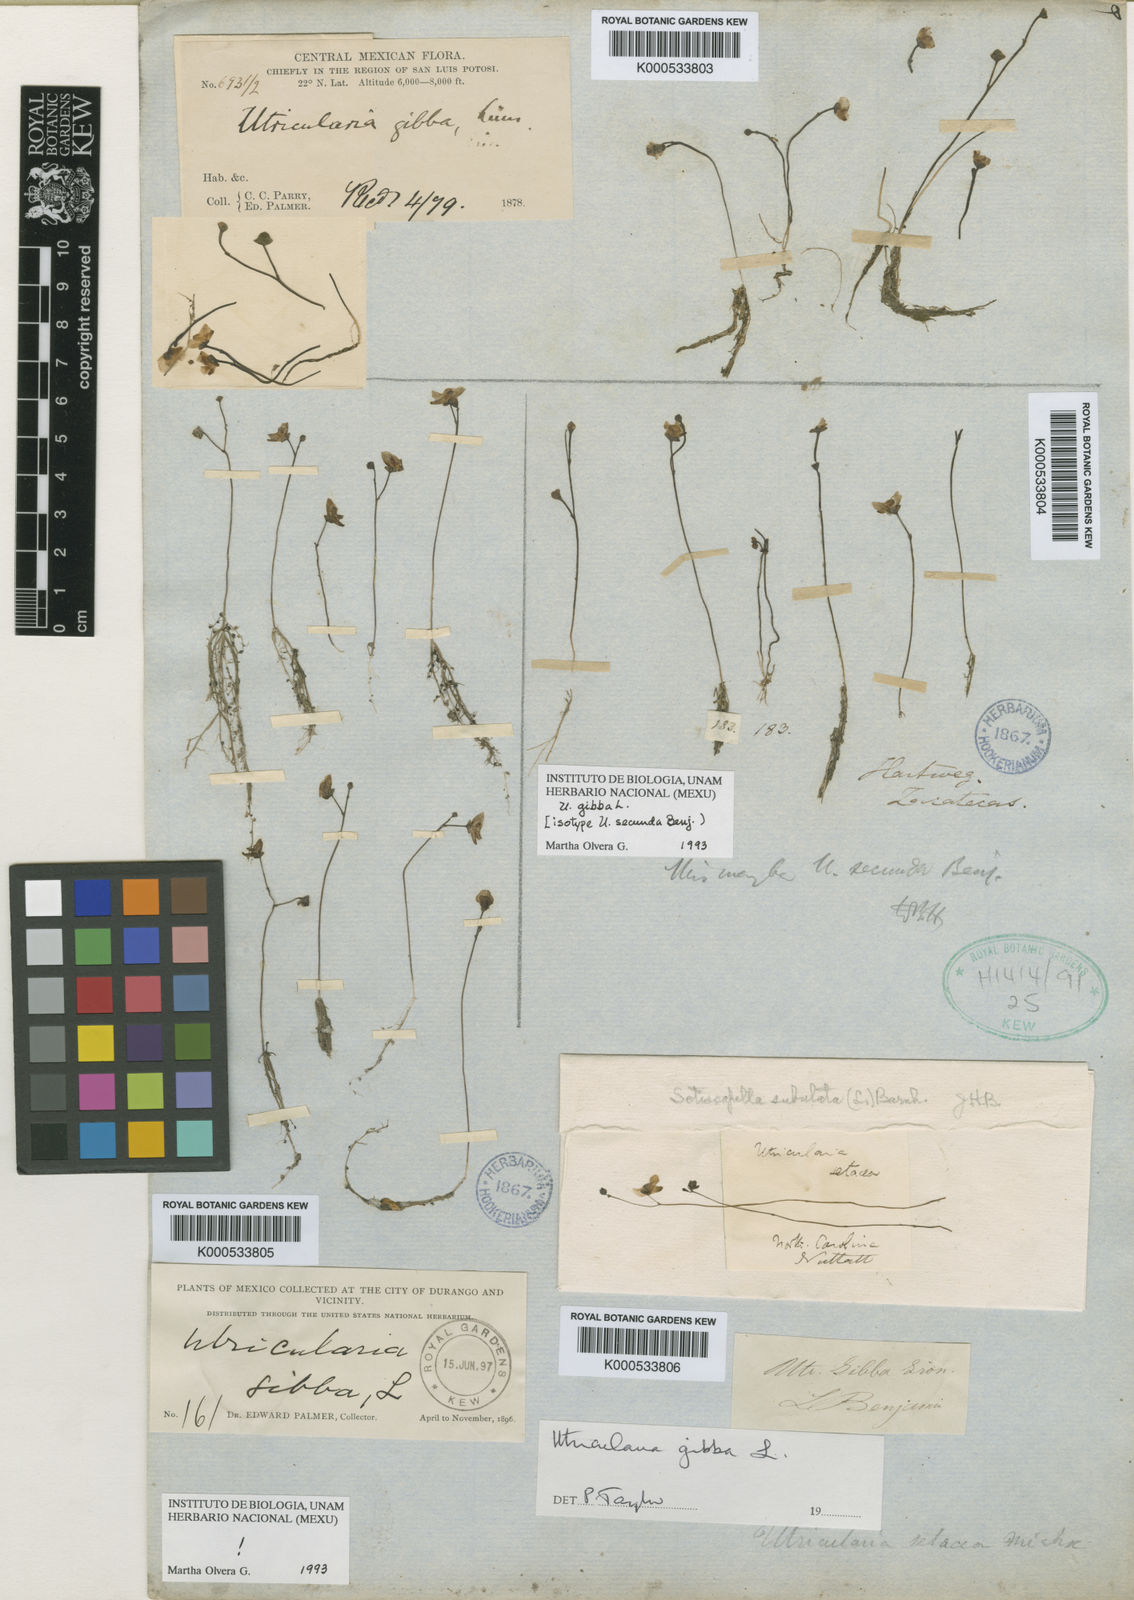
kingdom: Plantae
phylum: Tracheophyta
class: Magnoliopsida
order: Lamiales
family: Lentibulariaceae
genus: Utricularia
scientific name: Utricularia gibba
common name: Humped bladderwort
